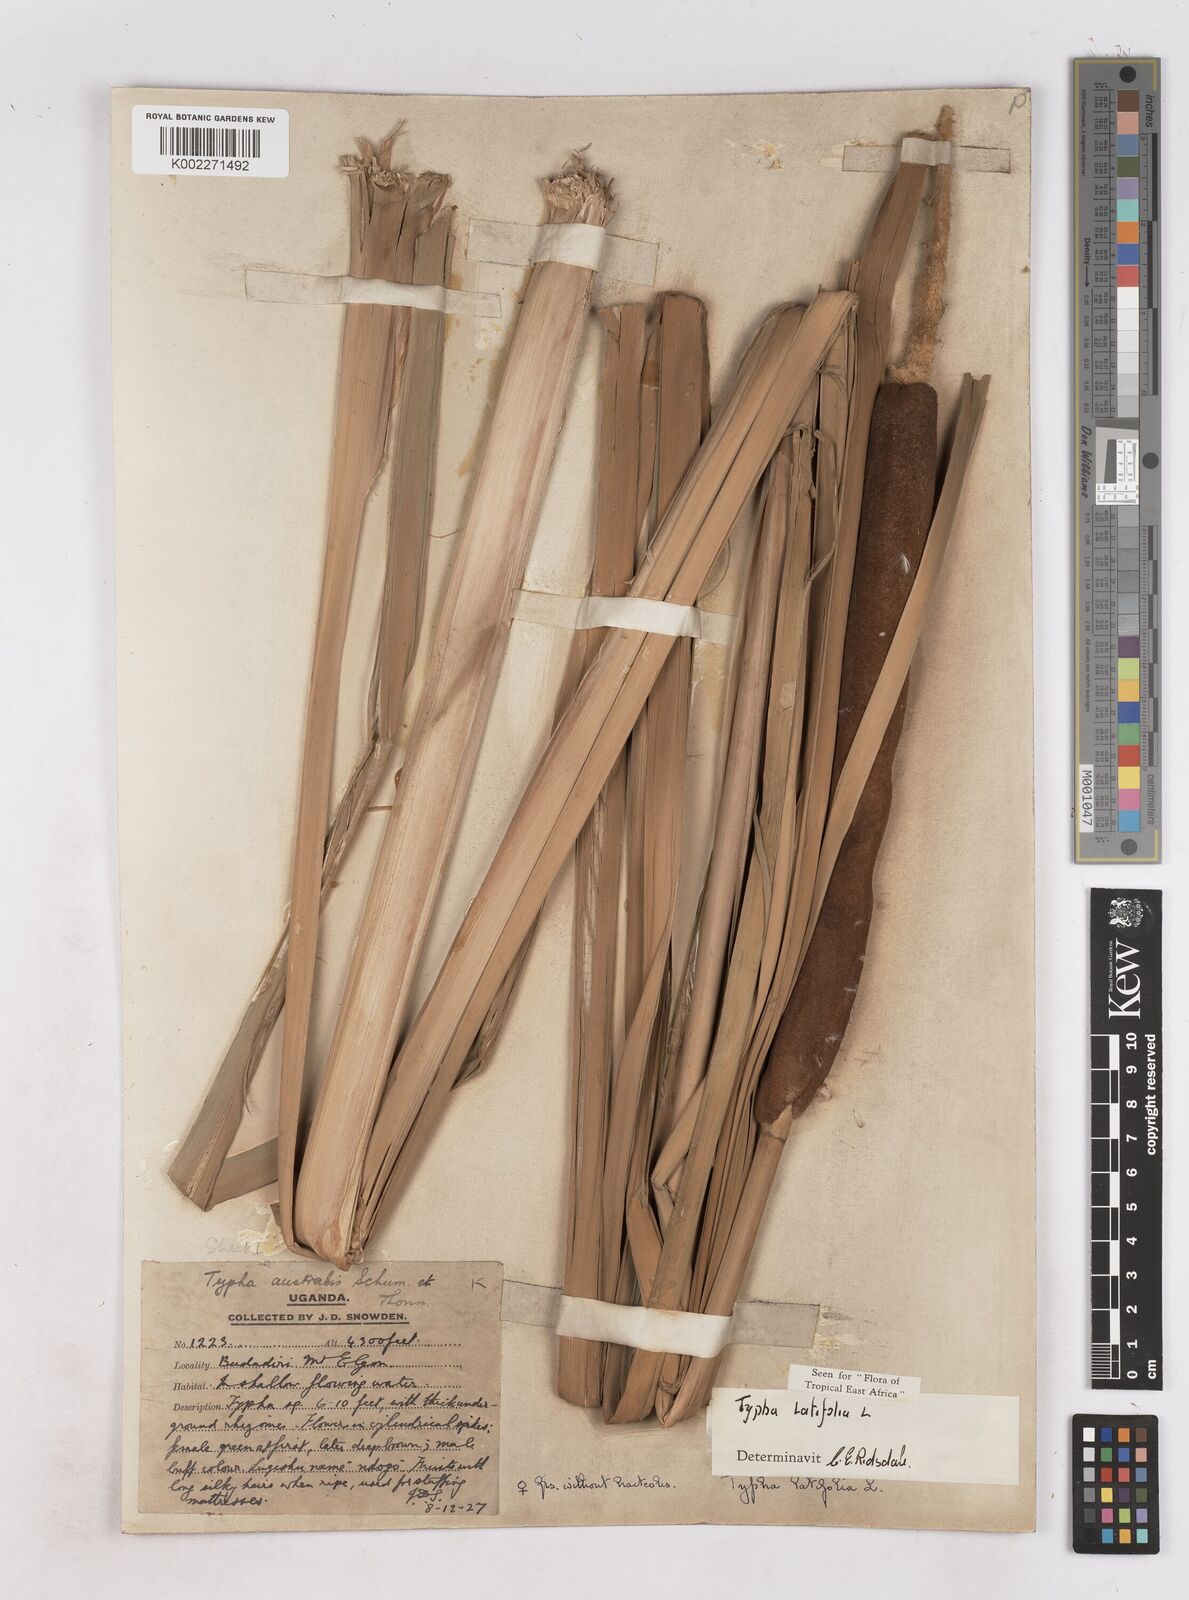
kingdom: Plantae
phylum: Tracheophyta
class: Liliopsida
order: Poales
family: Typhaceae
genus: Typha
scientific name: Typha latifolia
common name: Broadleaf cattail
